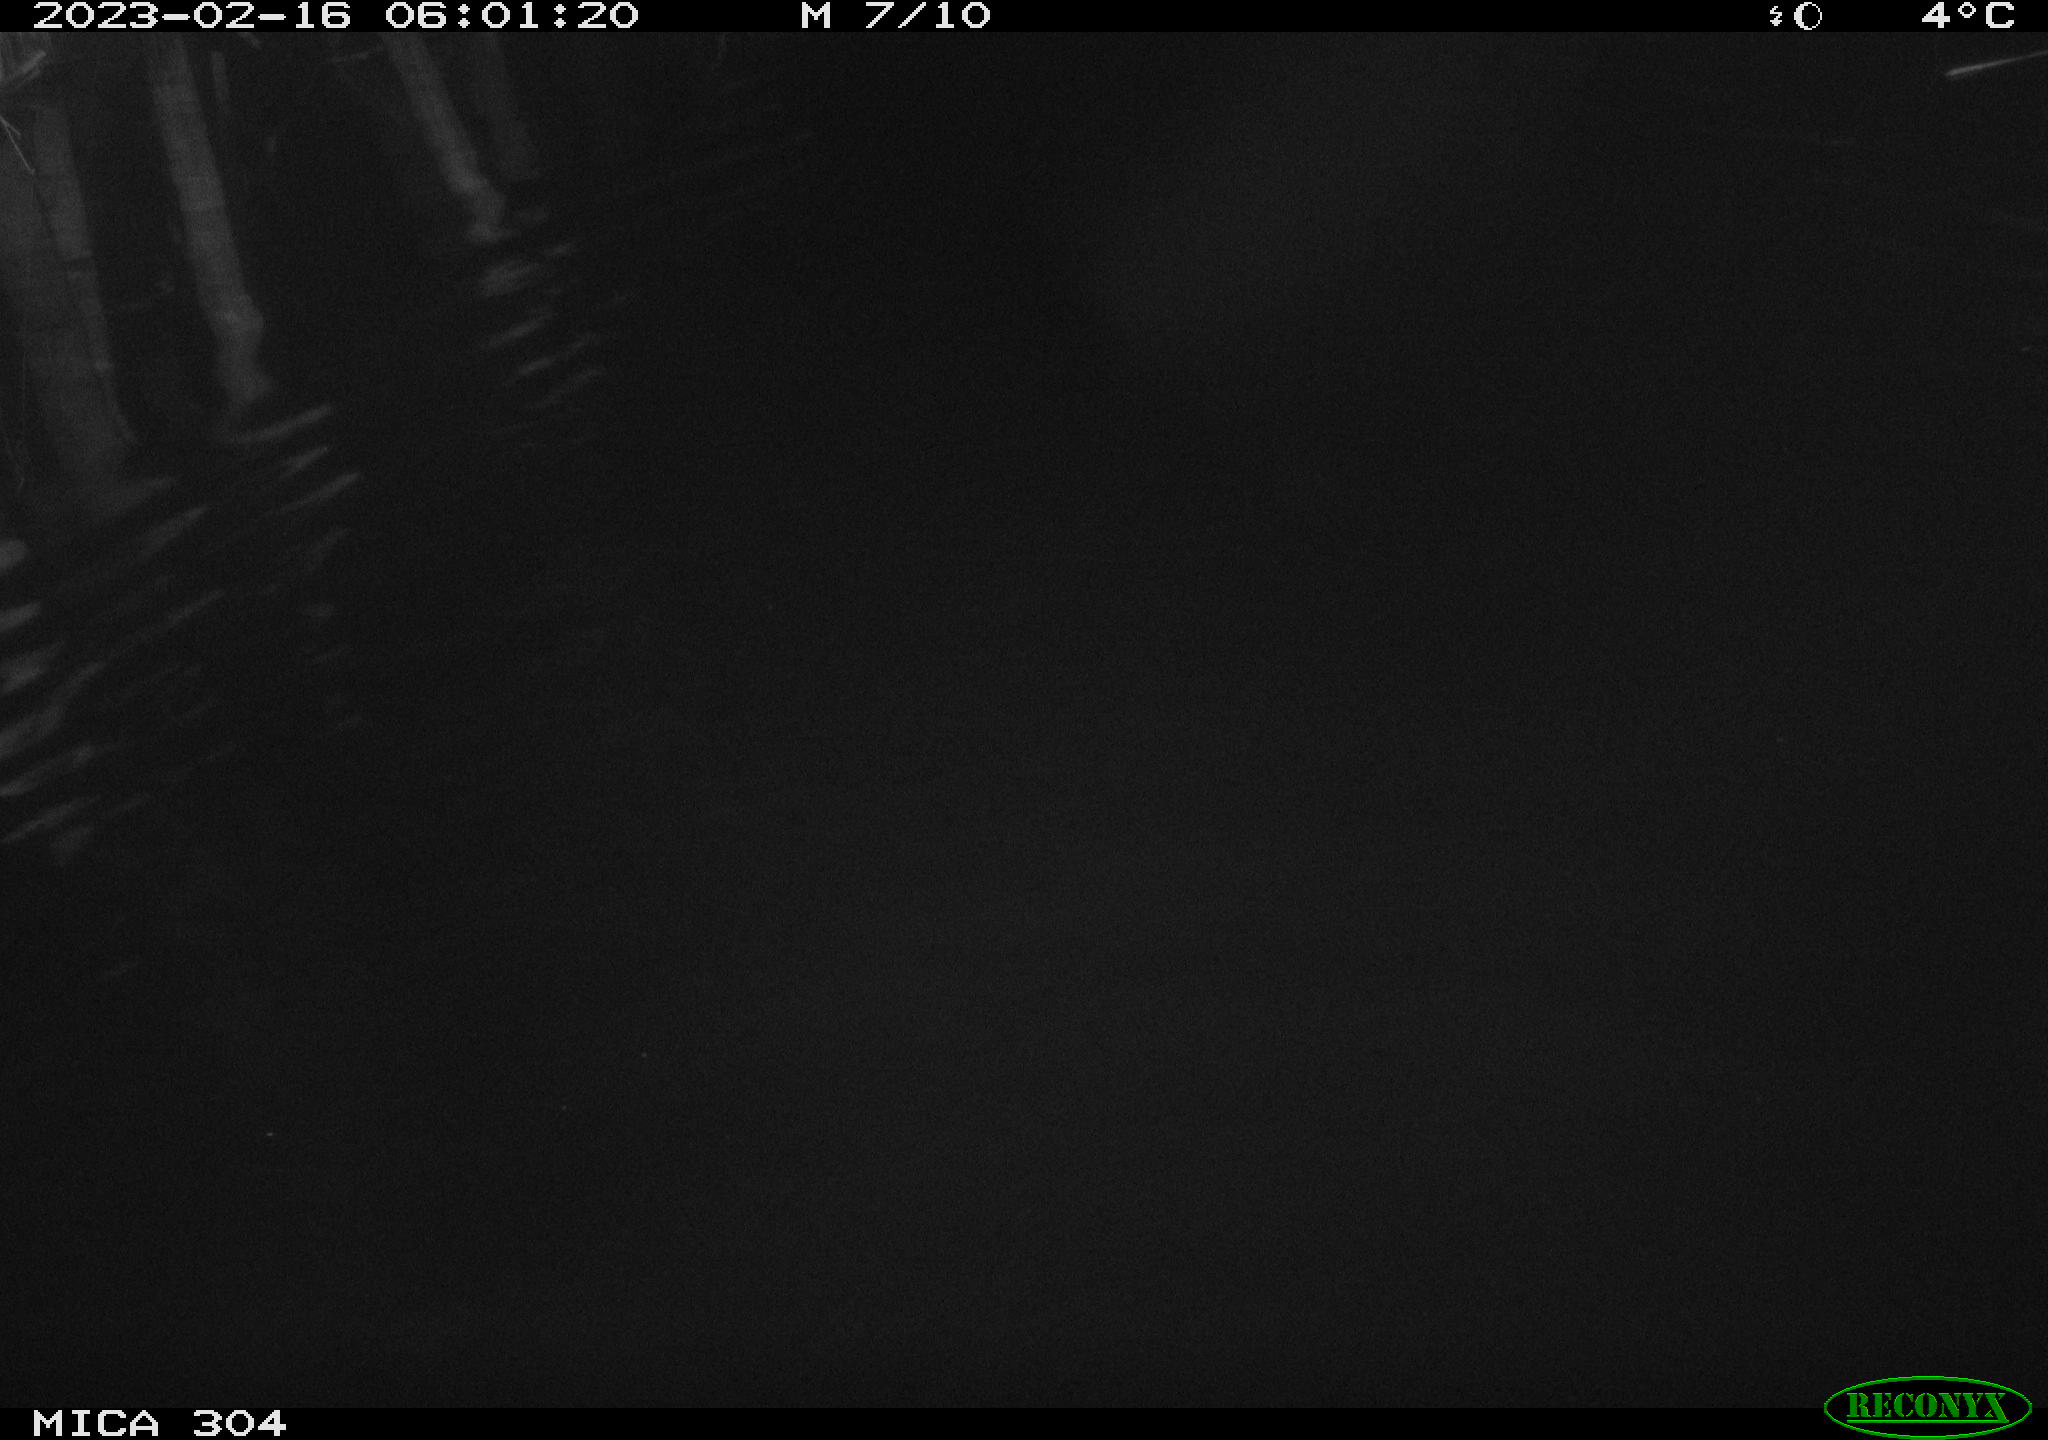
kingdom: Animalia
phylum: Chordata
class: Mammalia
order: Rodentia
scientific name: Rodentia
